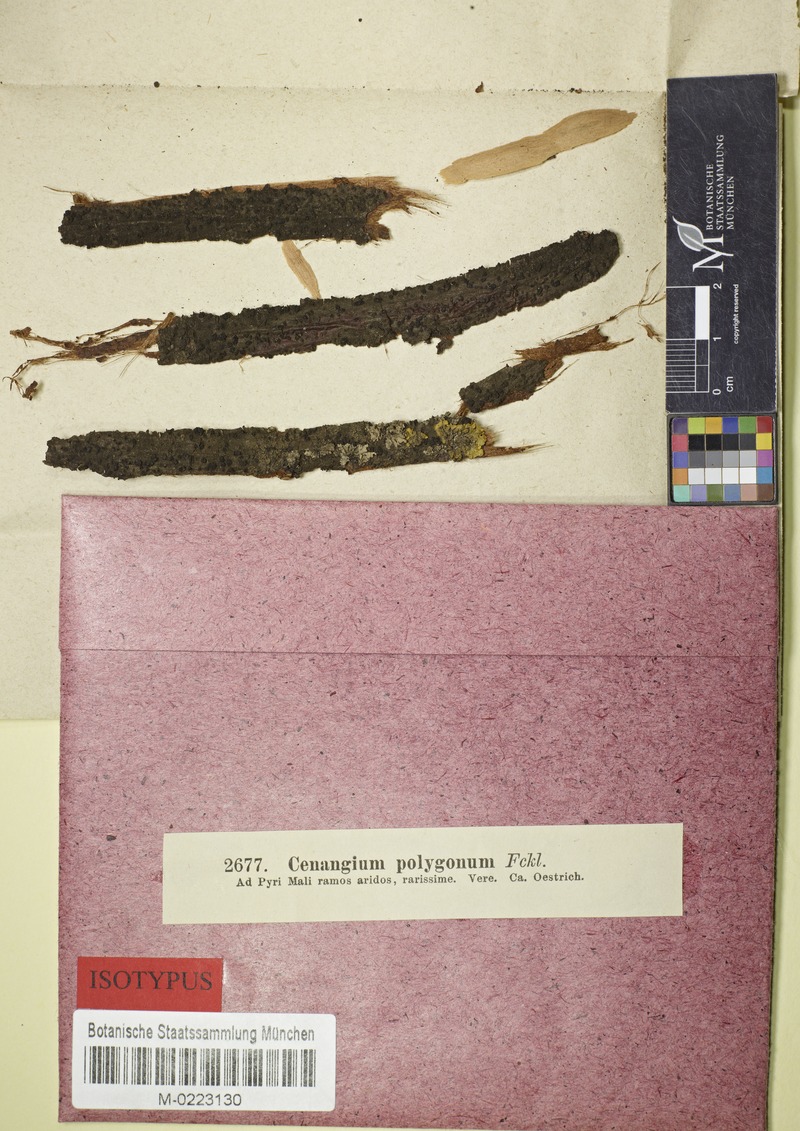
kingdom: Fungi
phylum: Ascomycota
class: Leotiomycetes
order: Helotiales
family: Dermateaceae
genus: Pezicula
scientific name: Pezicula polygona
